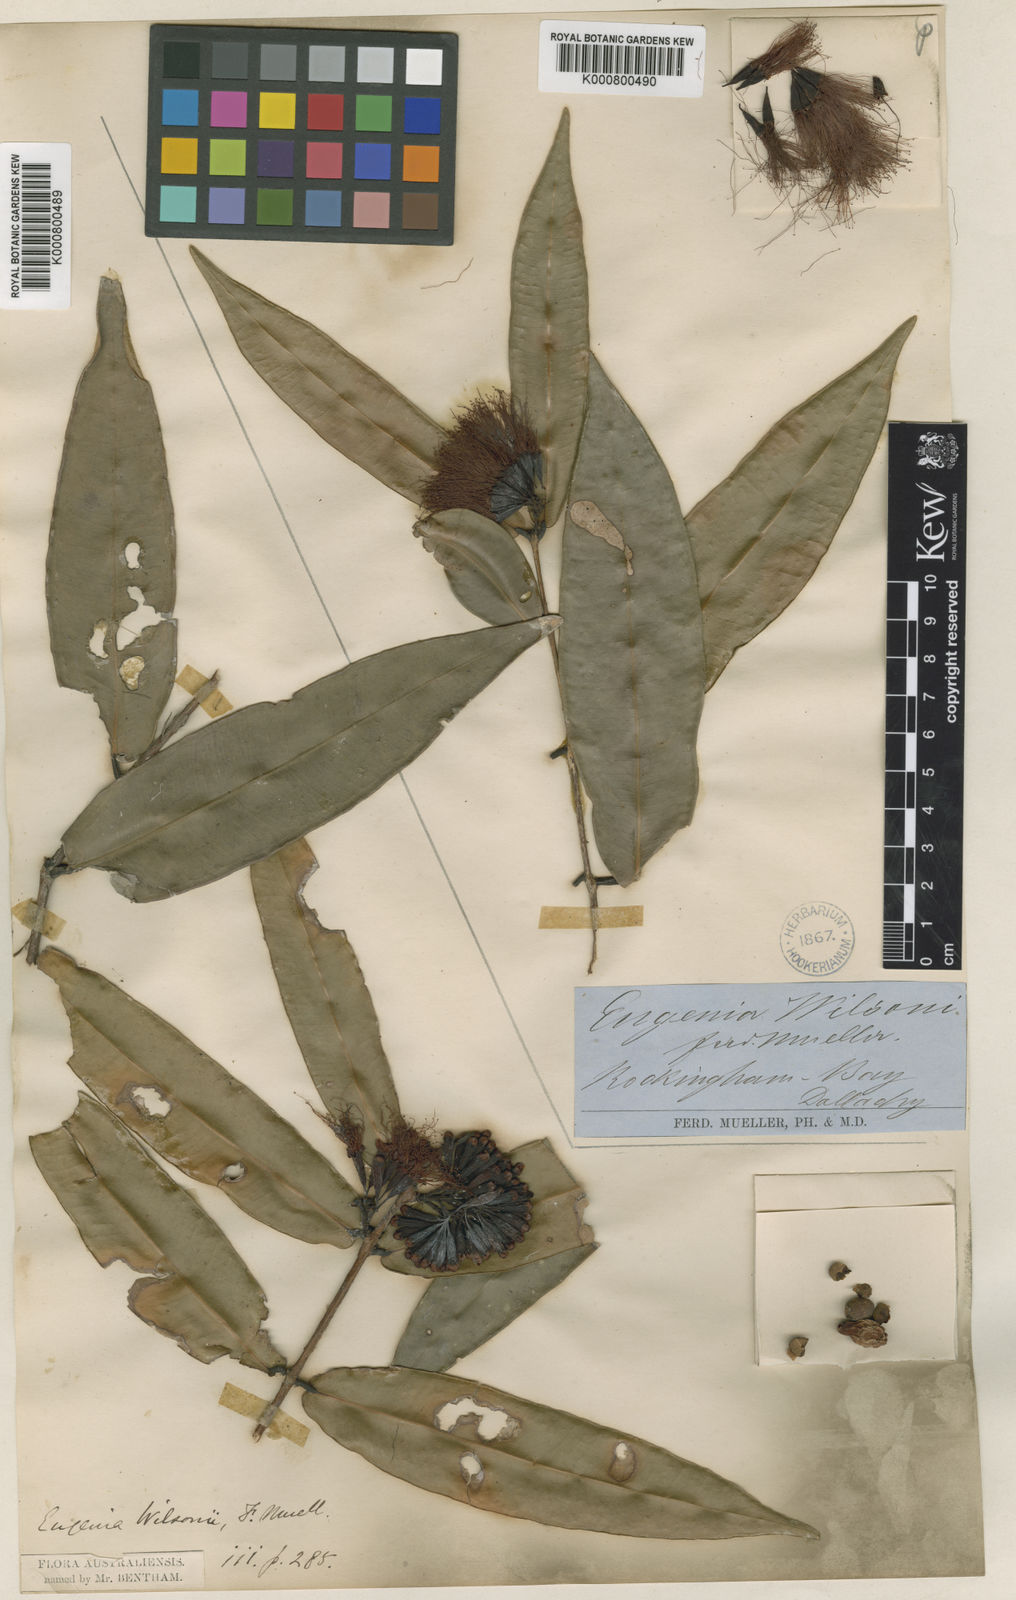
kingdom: Plantae
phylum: Tracheophyta
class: Magnoliopsida
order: Myrtales
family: Myrtaceae
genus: Syzygium
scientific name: Syzygium wilsonii
